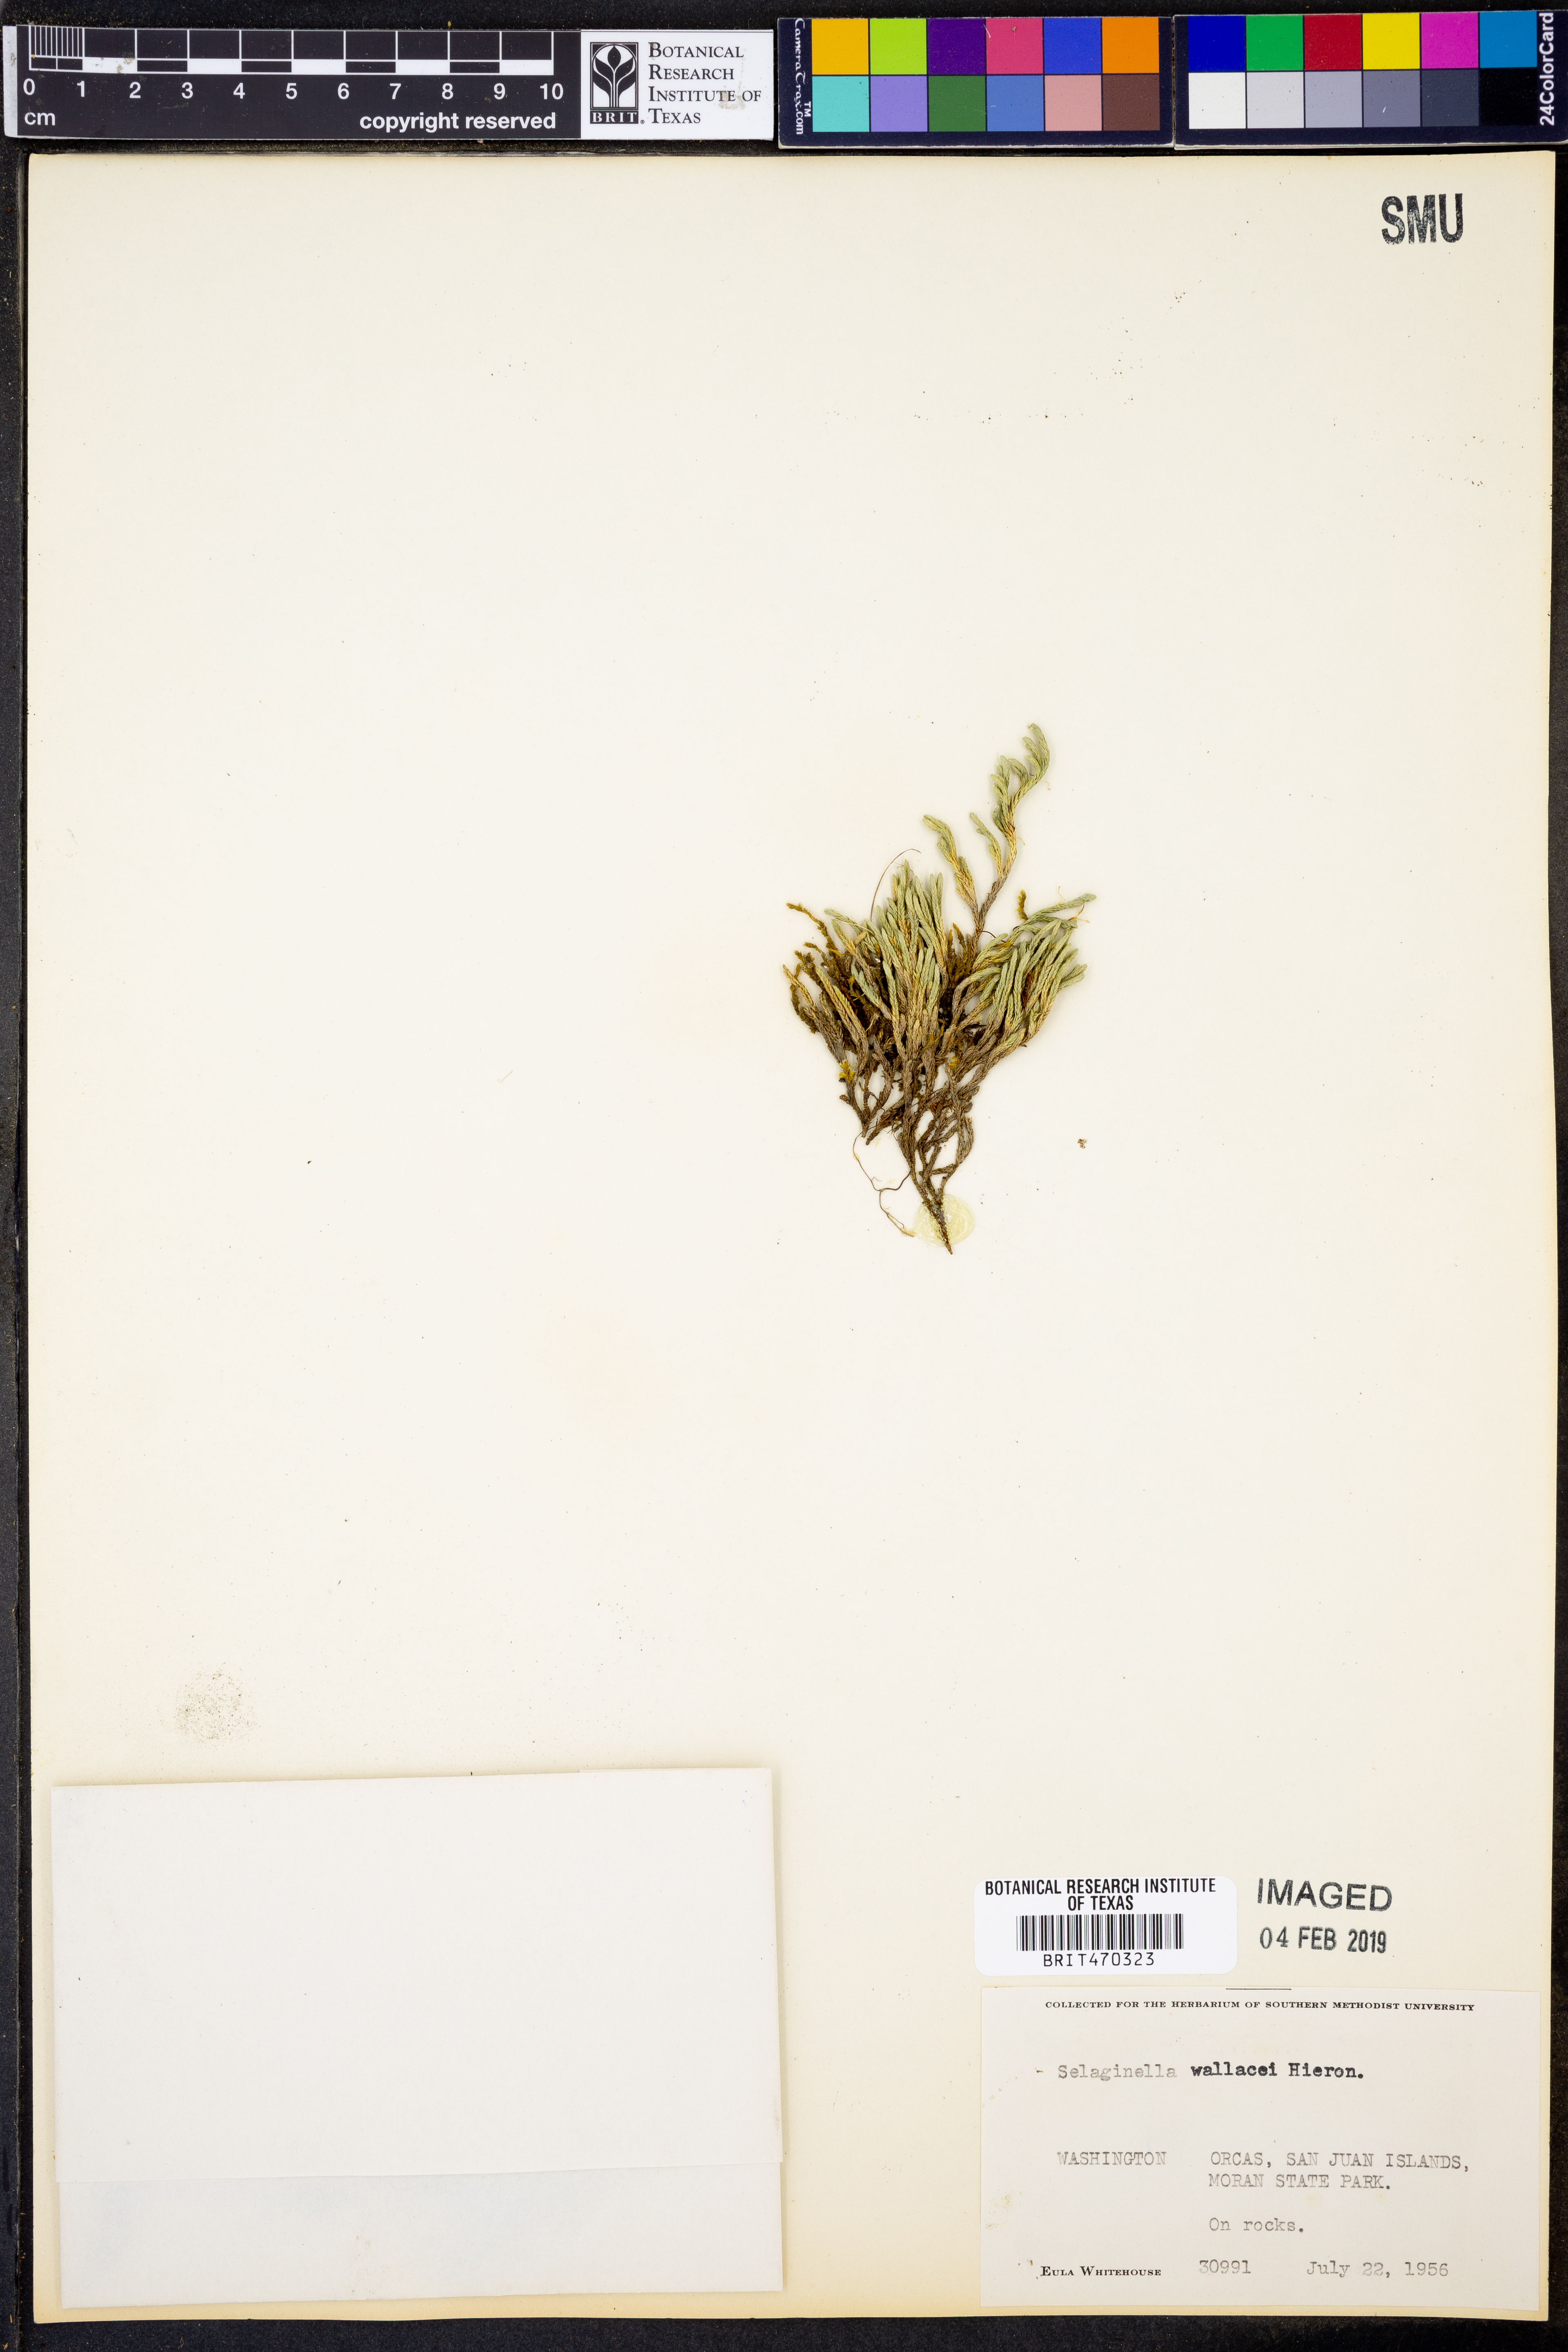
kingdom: Plantae
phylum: Tracheophyta
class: Lycopodiopsida
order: Selaginellales
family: Selaginellaceae
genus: Selaginella
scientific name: Selaginella wallacei
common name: Wallace's selaginella
